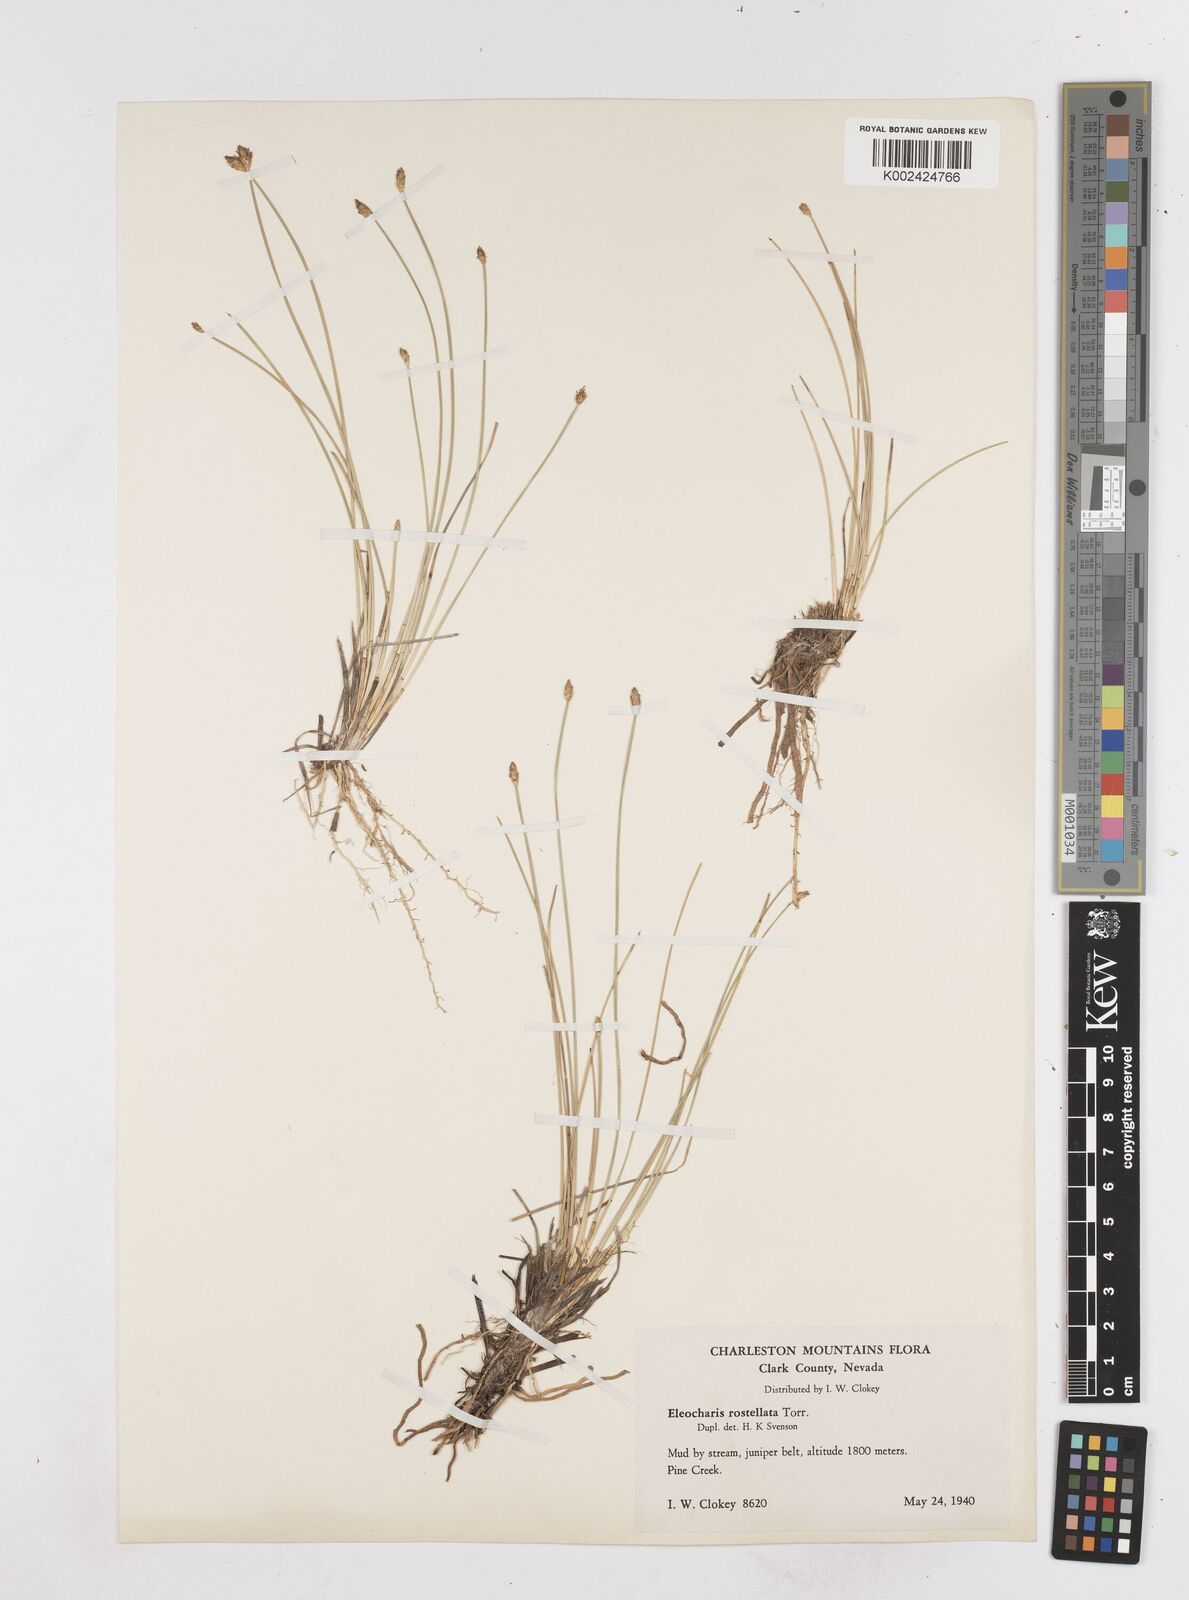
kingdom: Plantae
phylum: Tracheophyta
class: Liliopsida
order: Poales
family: Cyperaceae
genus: Eleocharis
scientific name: Eleocharis rostellata
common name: Walking sedge
